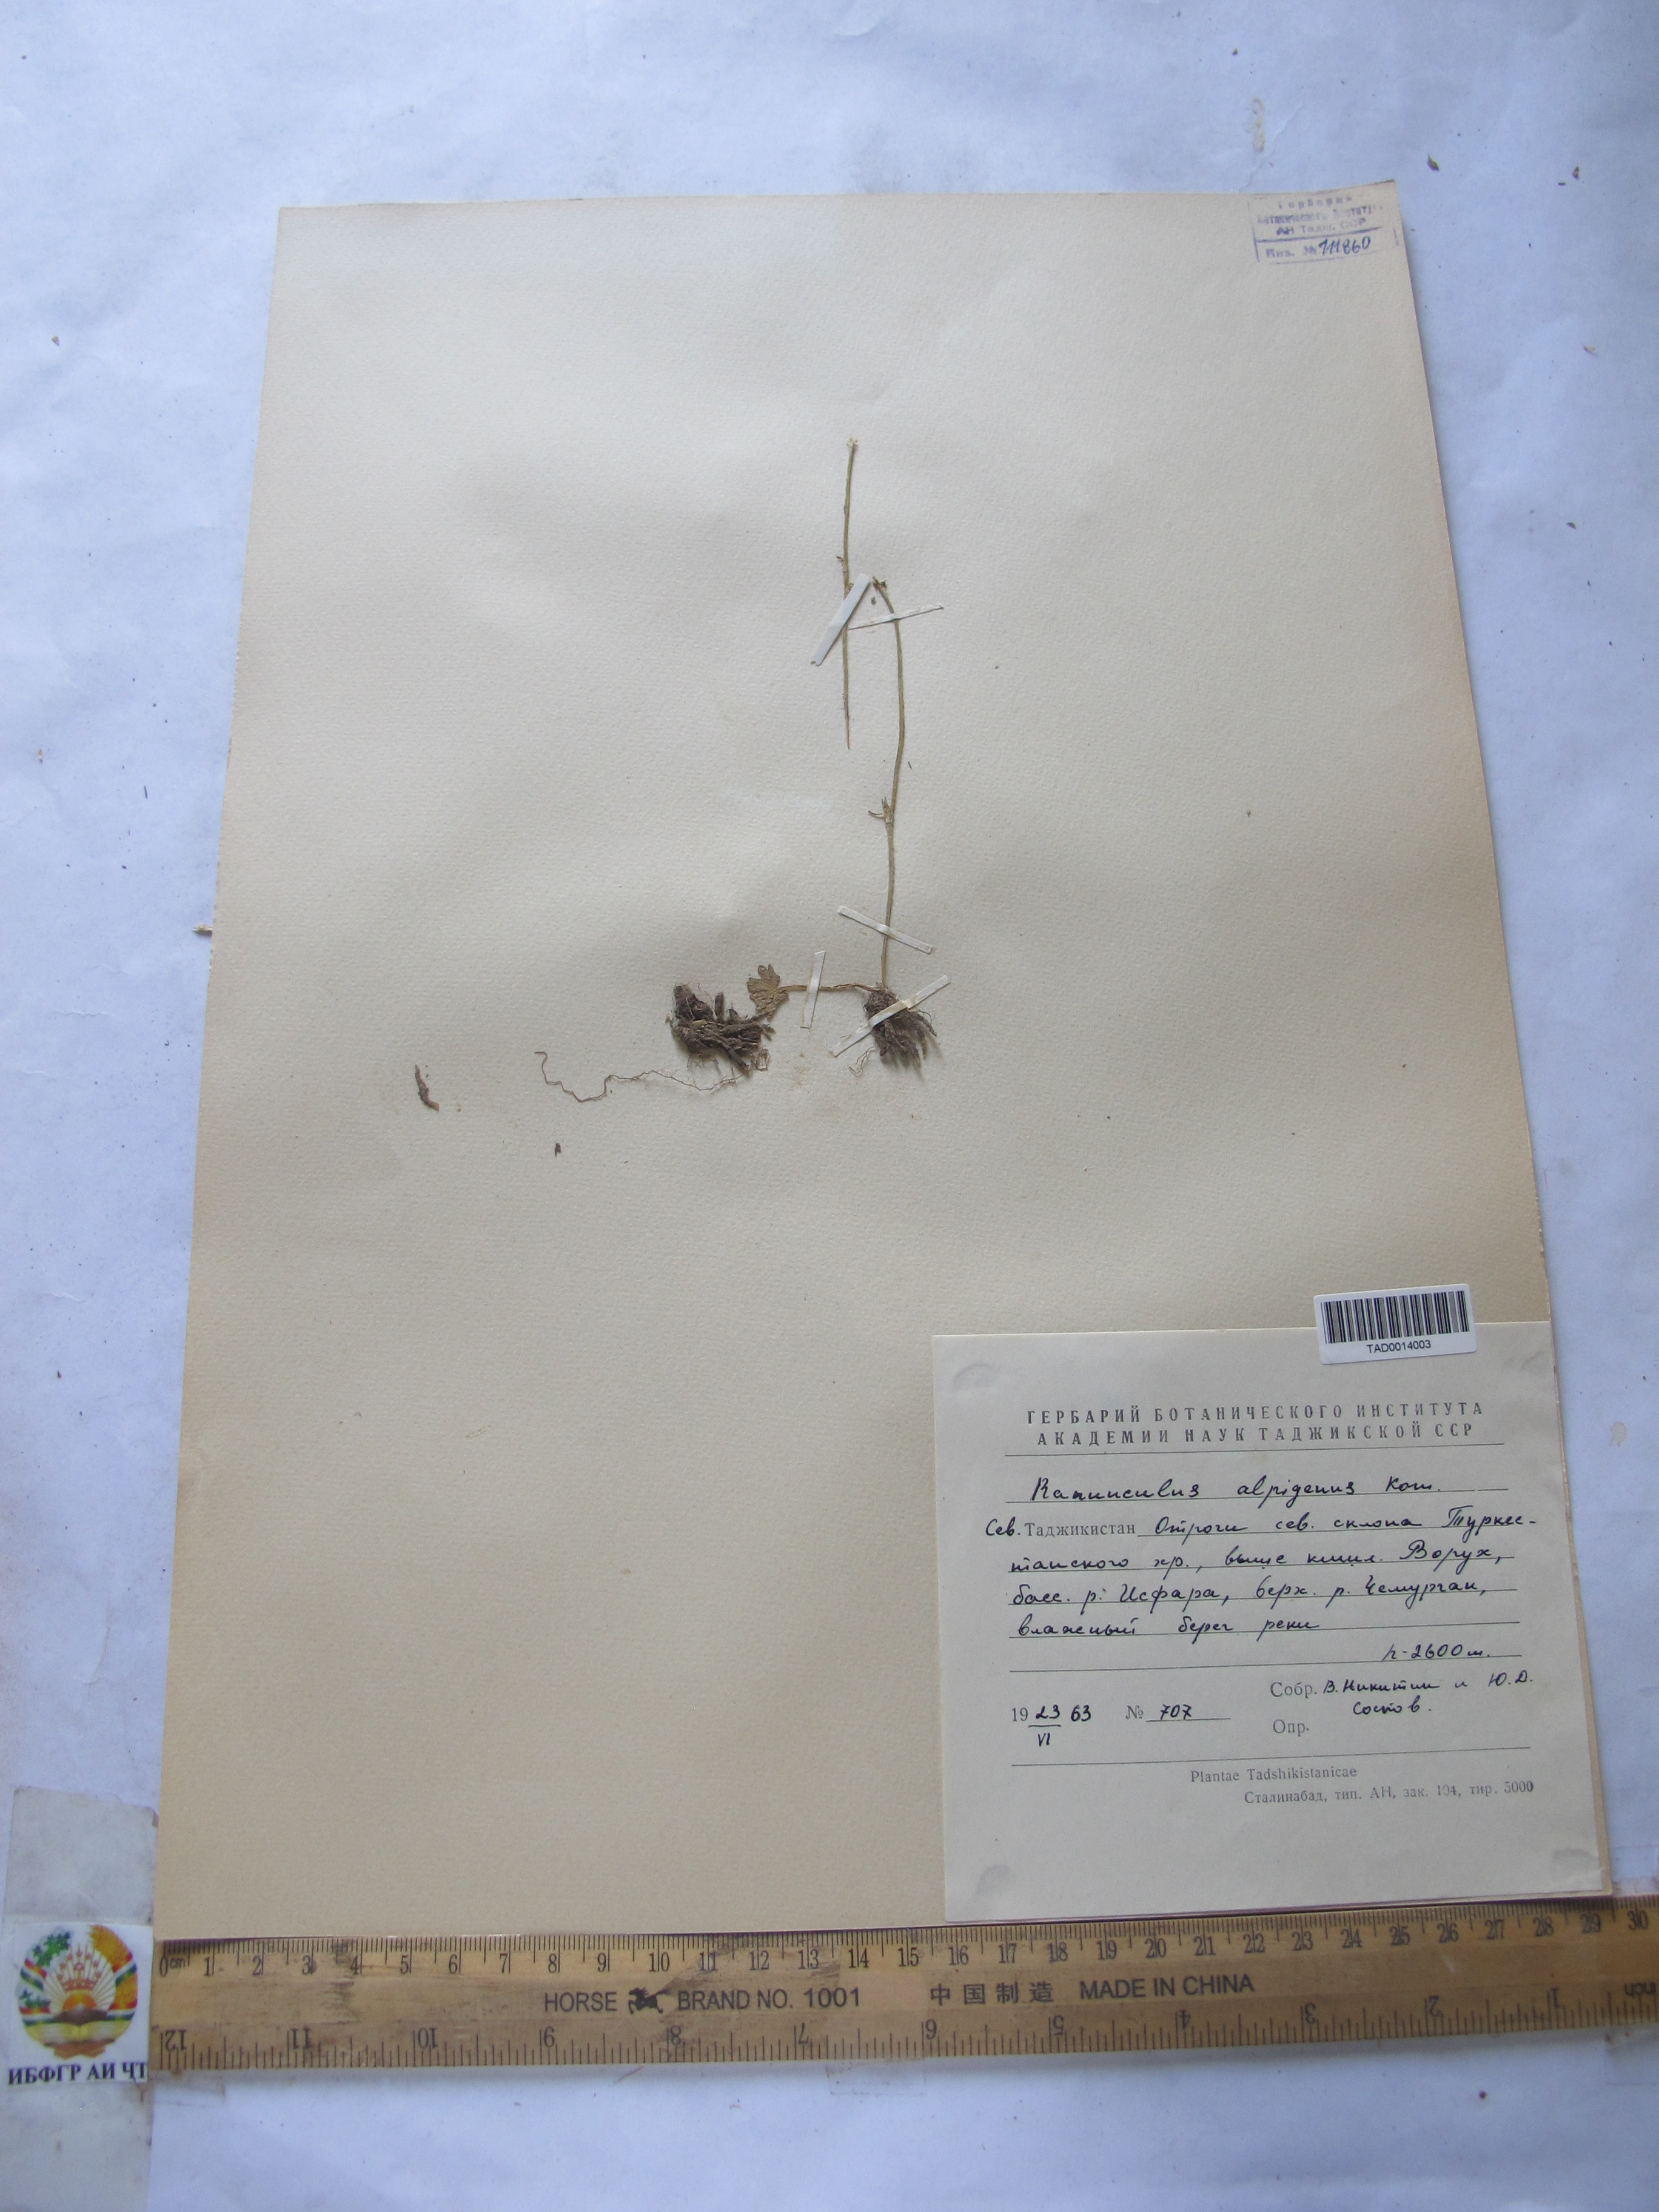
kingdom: Plantae
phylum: Tracheophyta
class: Magnoliopsida
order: Ranunculales
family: Ranunculaceae
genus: Ranunculus
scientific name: Ranunculus arvensis
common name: Corn buttercup
